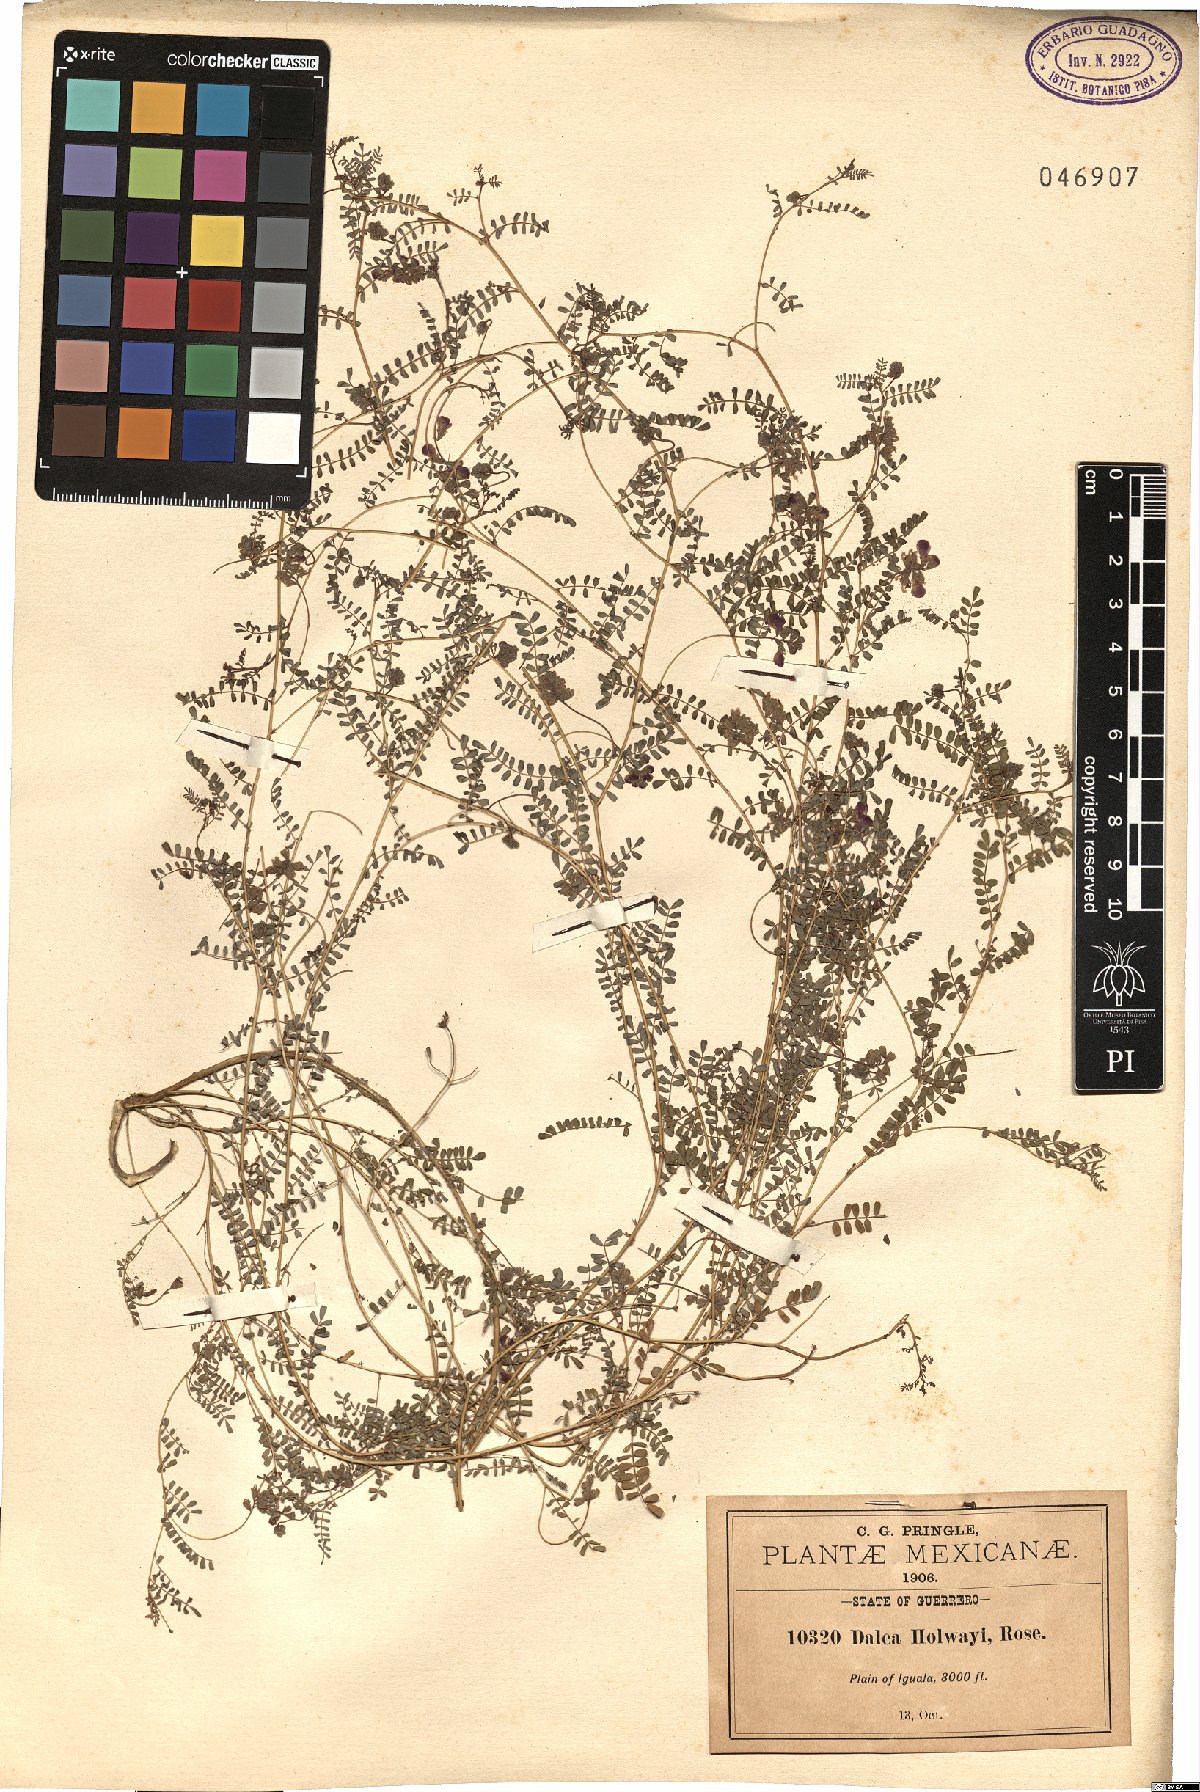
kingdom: Plantae
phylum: Tracheophyta
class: Magnoliopsida
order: Fabales
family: Fabaceae
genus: Dalea
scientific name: Dalea holwayi
